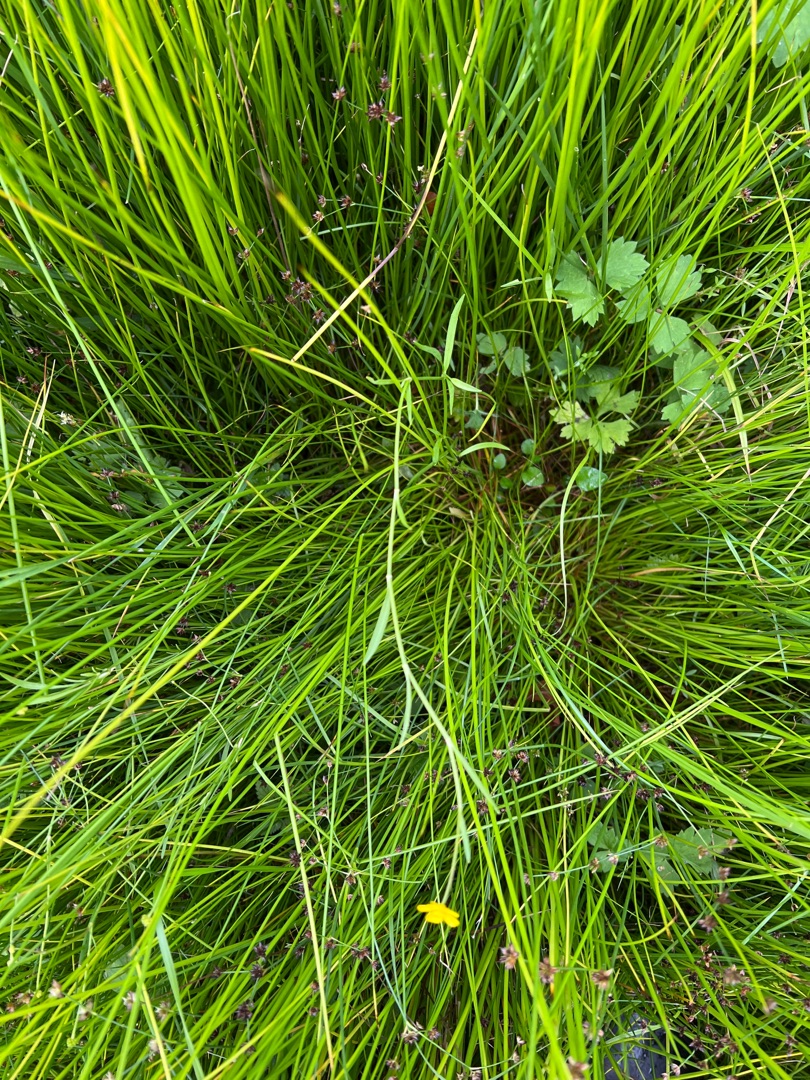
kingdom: Plantae
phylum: Tracheophyta
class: Magnoliopsida
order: Ranunculales
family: Ranunculaceae
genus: Ranunculus
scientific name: Ranunculus flammula
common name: Kær-ranunkel
